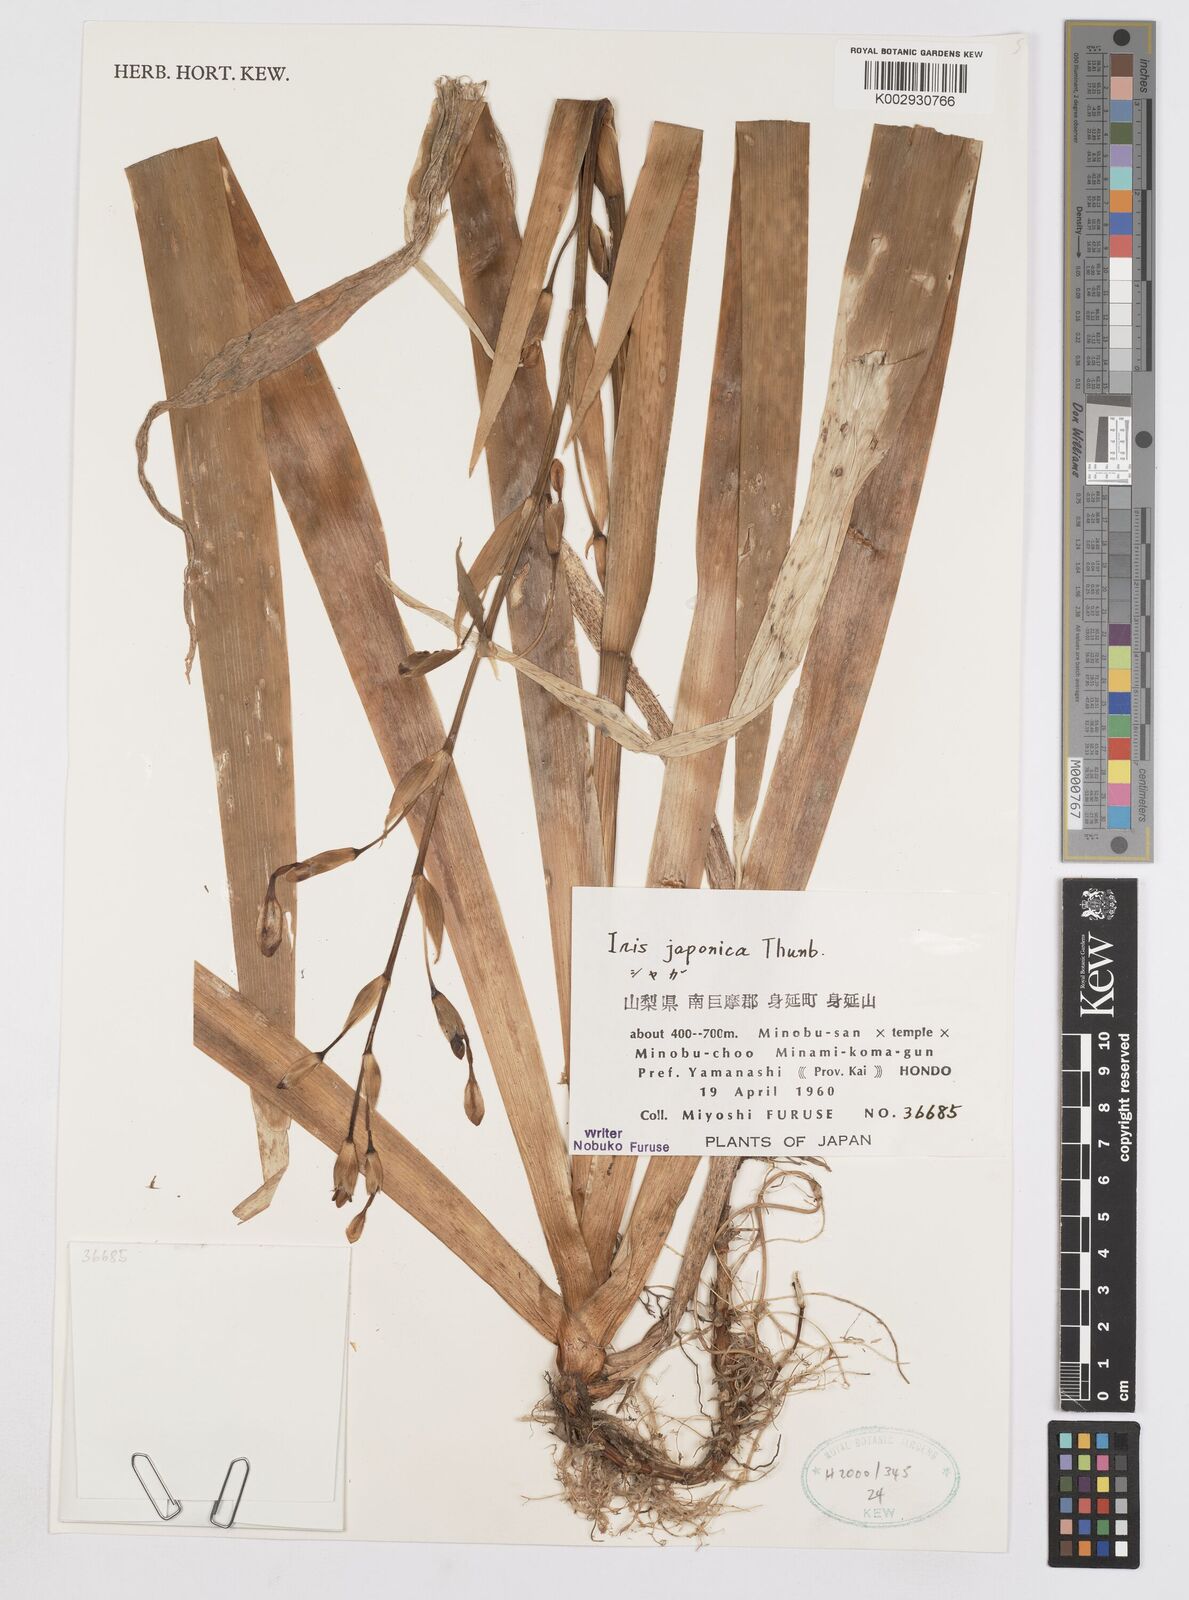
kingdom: Plantae
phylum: Tracheophyta
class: Liliopsida
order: Asparagales
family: Iridaceae
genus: Iris
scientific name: Iris japonica
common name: Butterfly-flower
